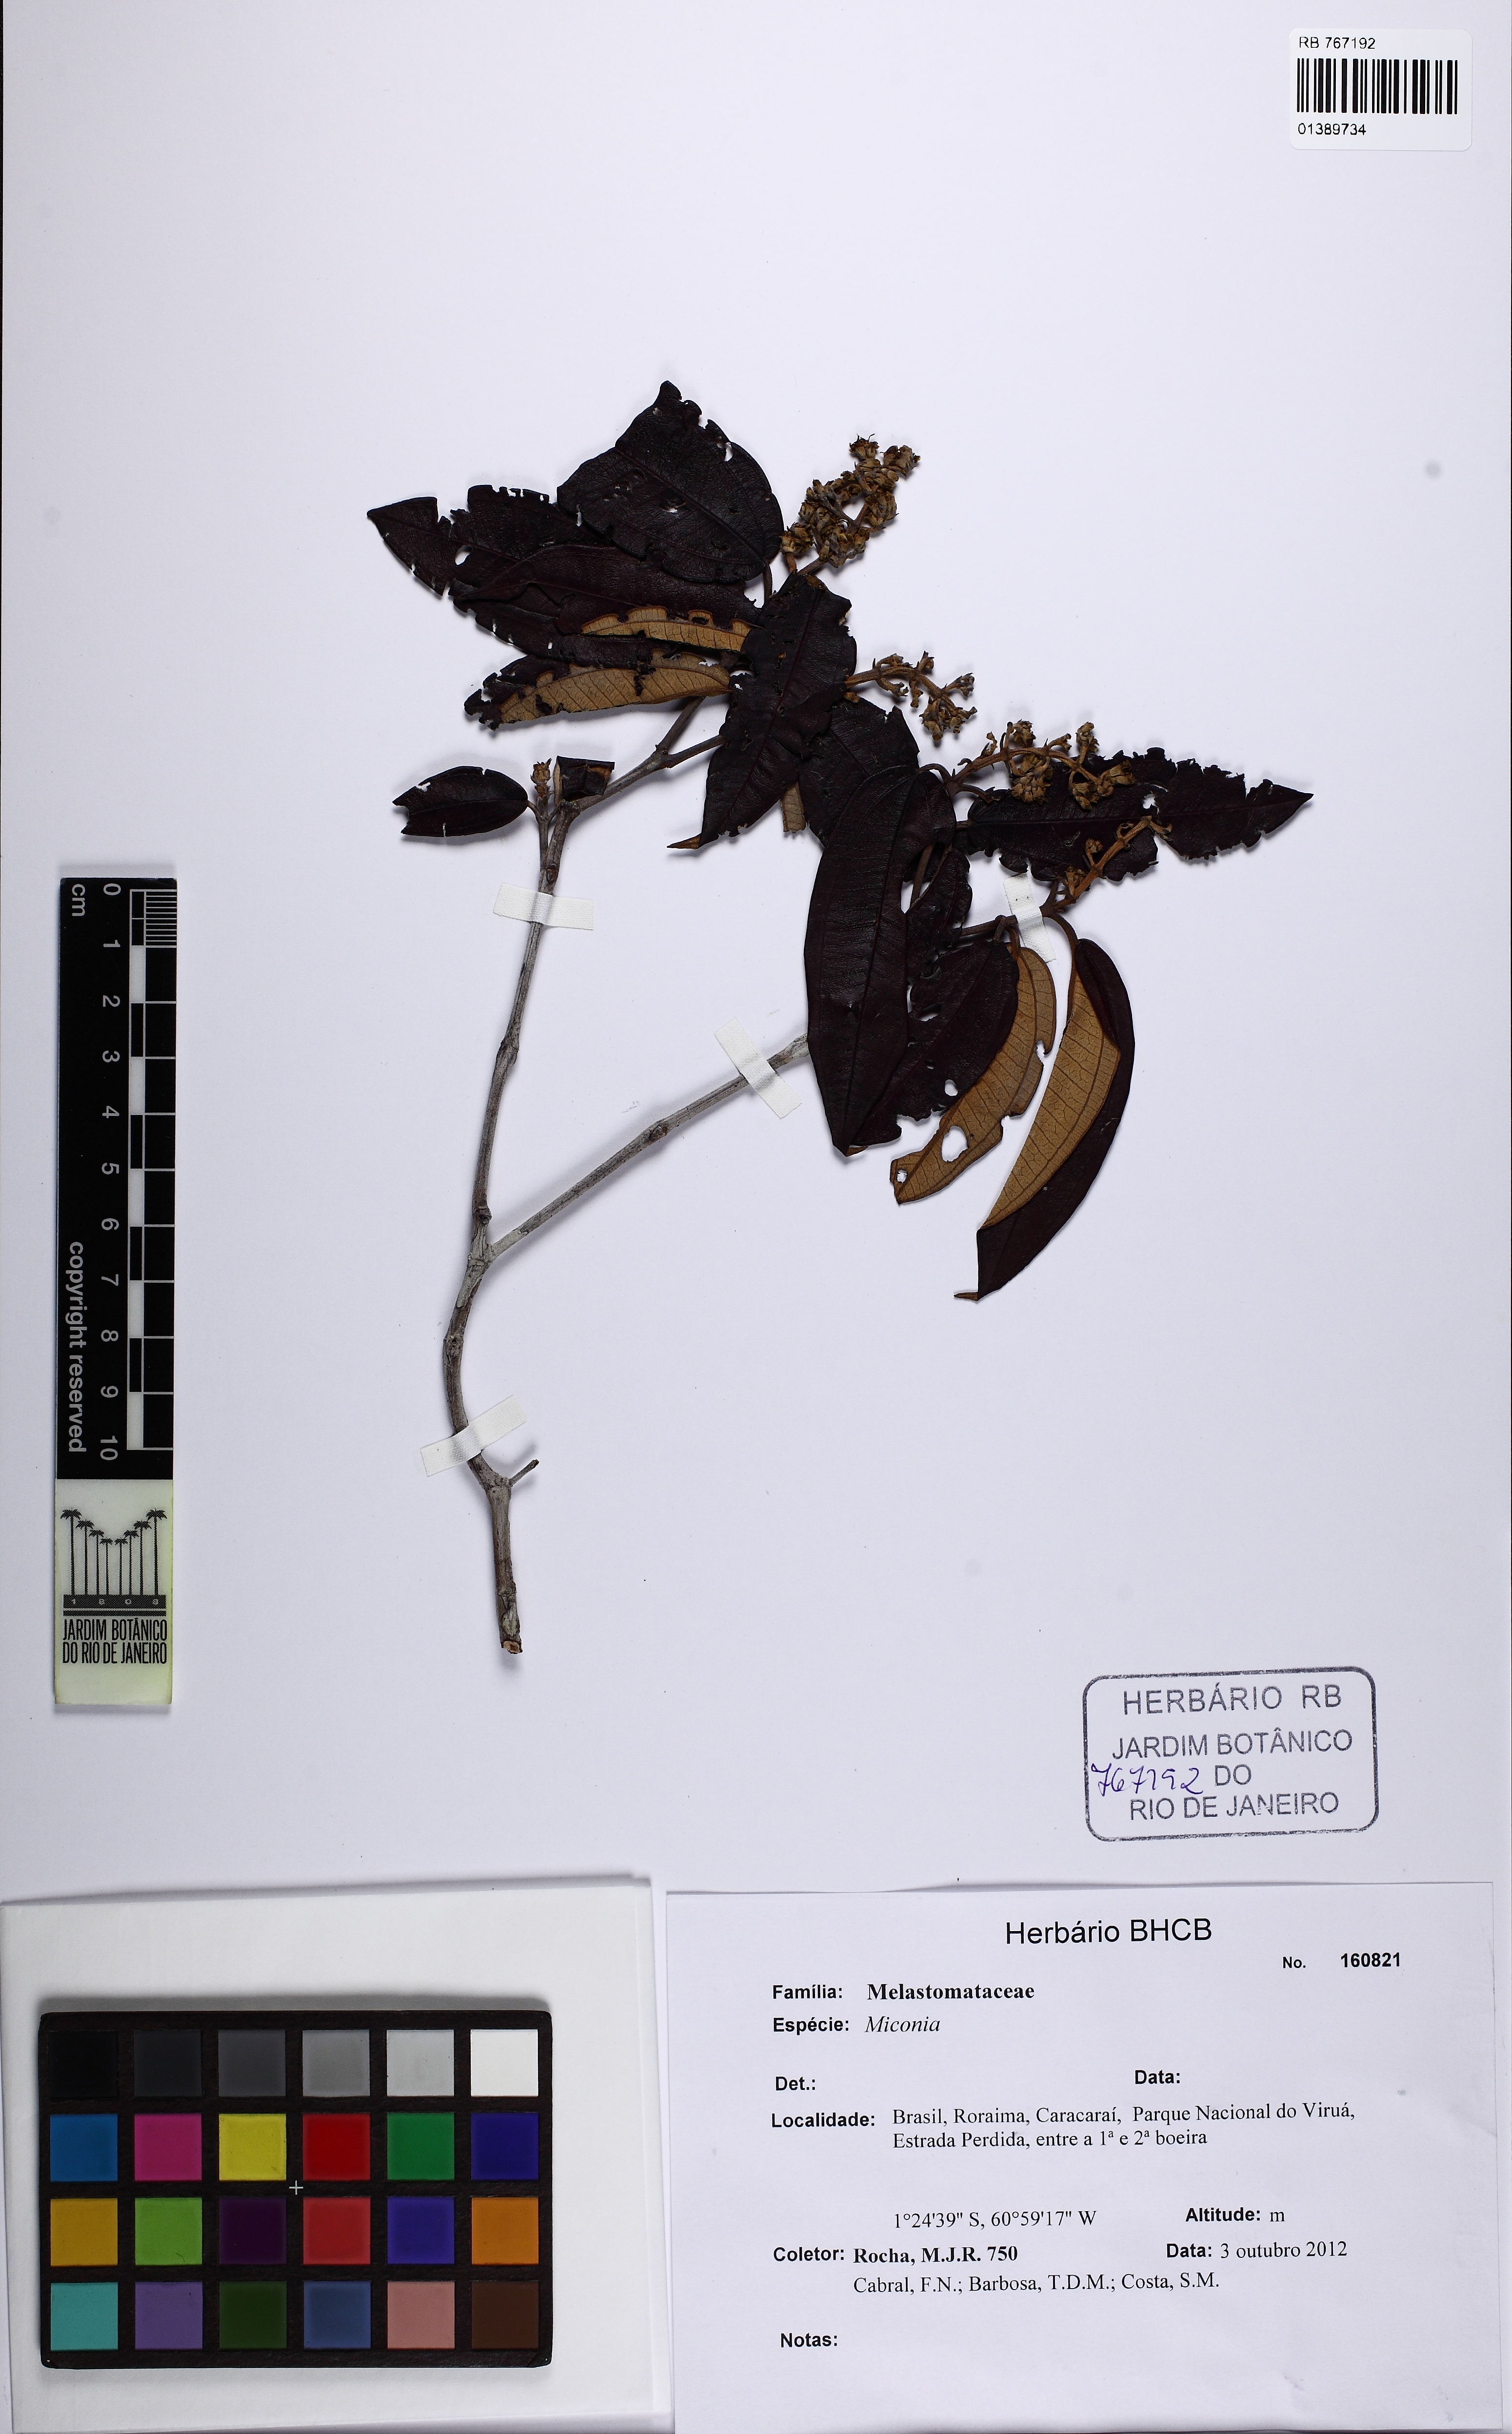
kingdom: Plantae
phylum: Tracheophyta
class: Magnoliopsida
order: Myrtales
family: Melastomataceae
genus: Miconia
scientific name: Miconia
